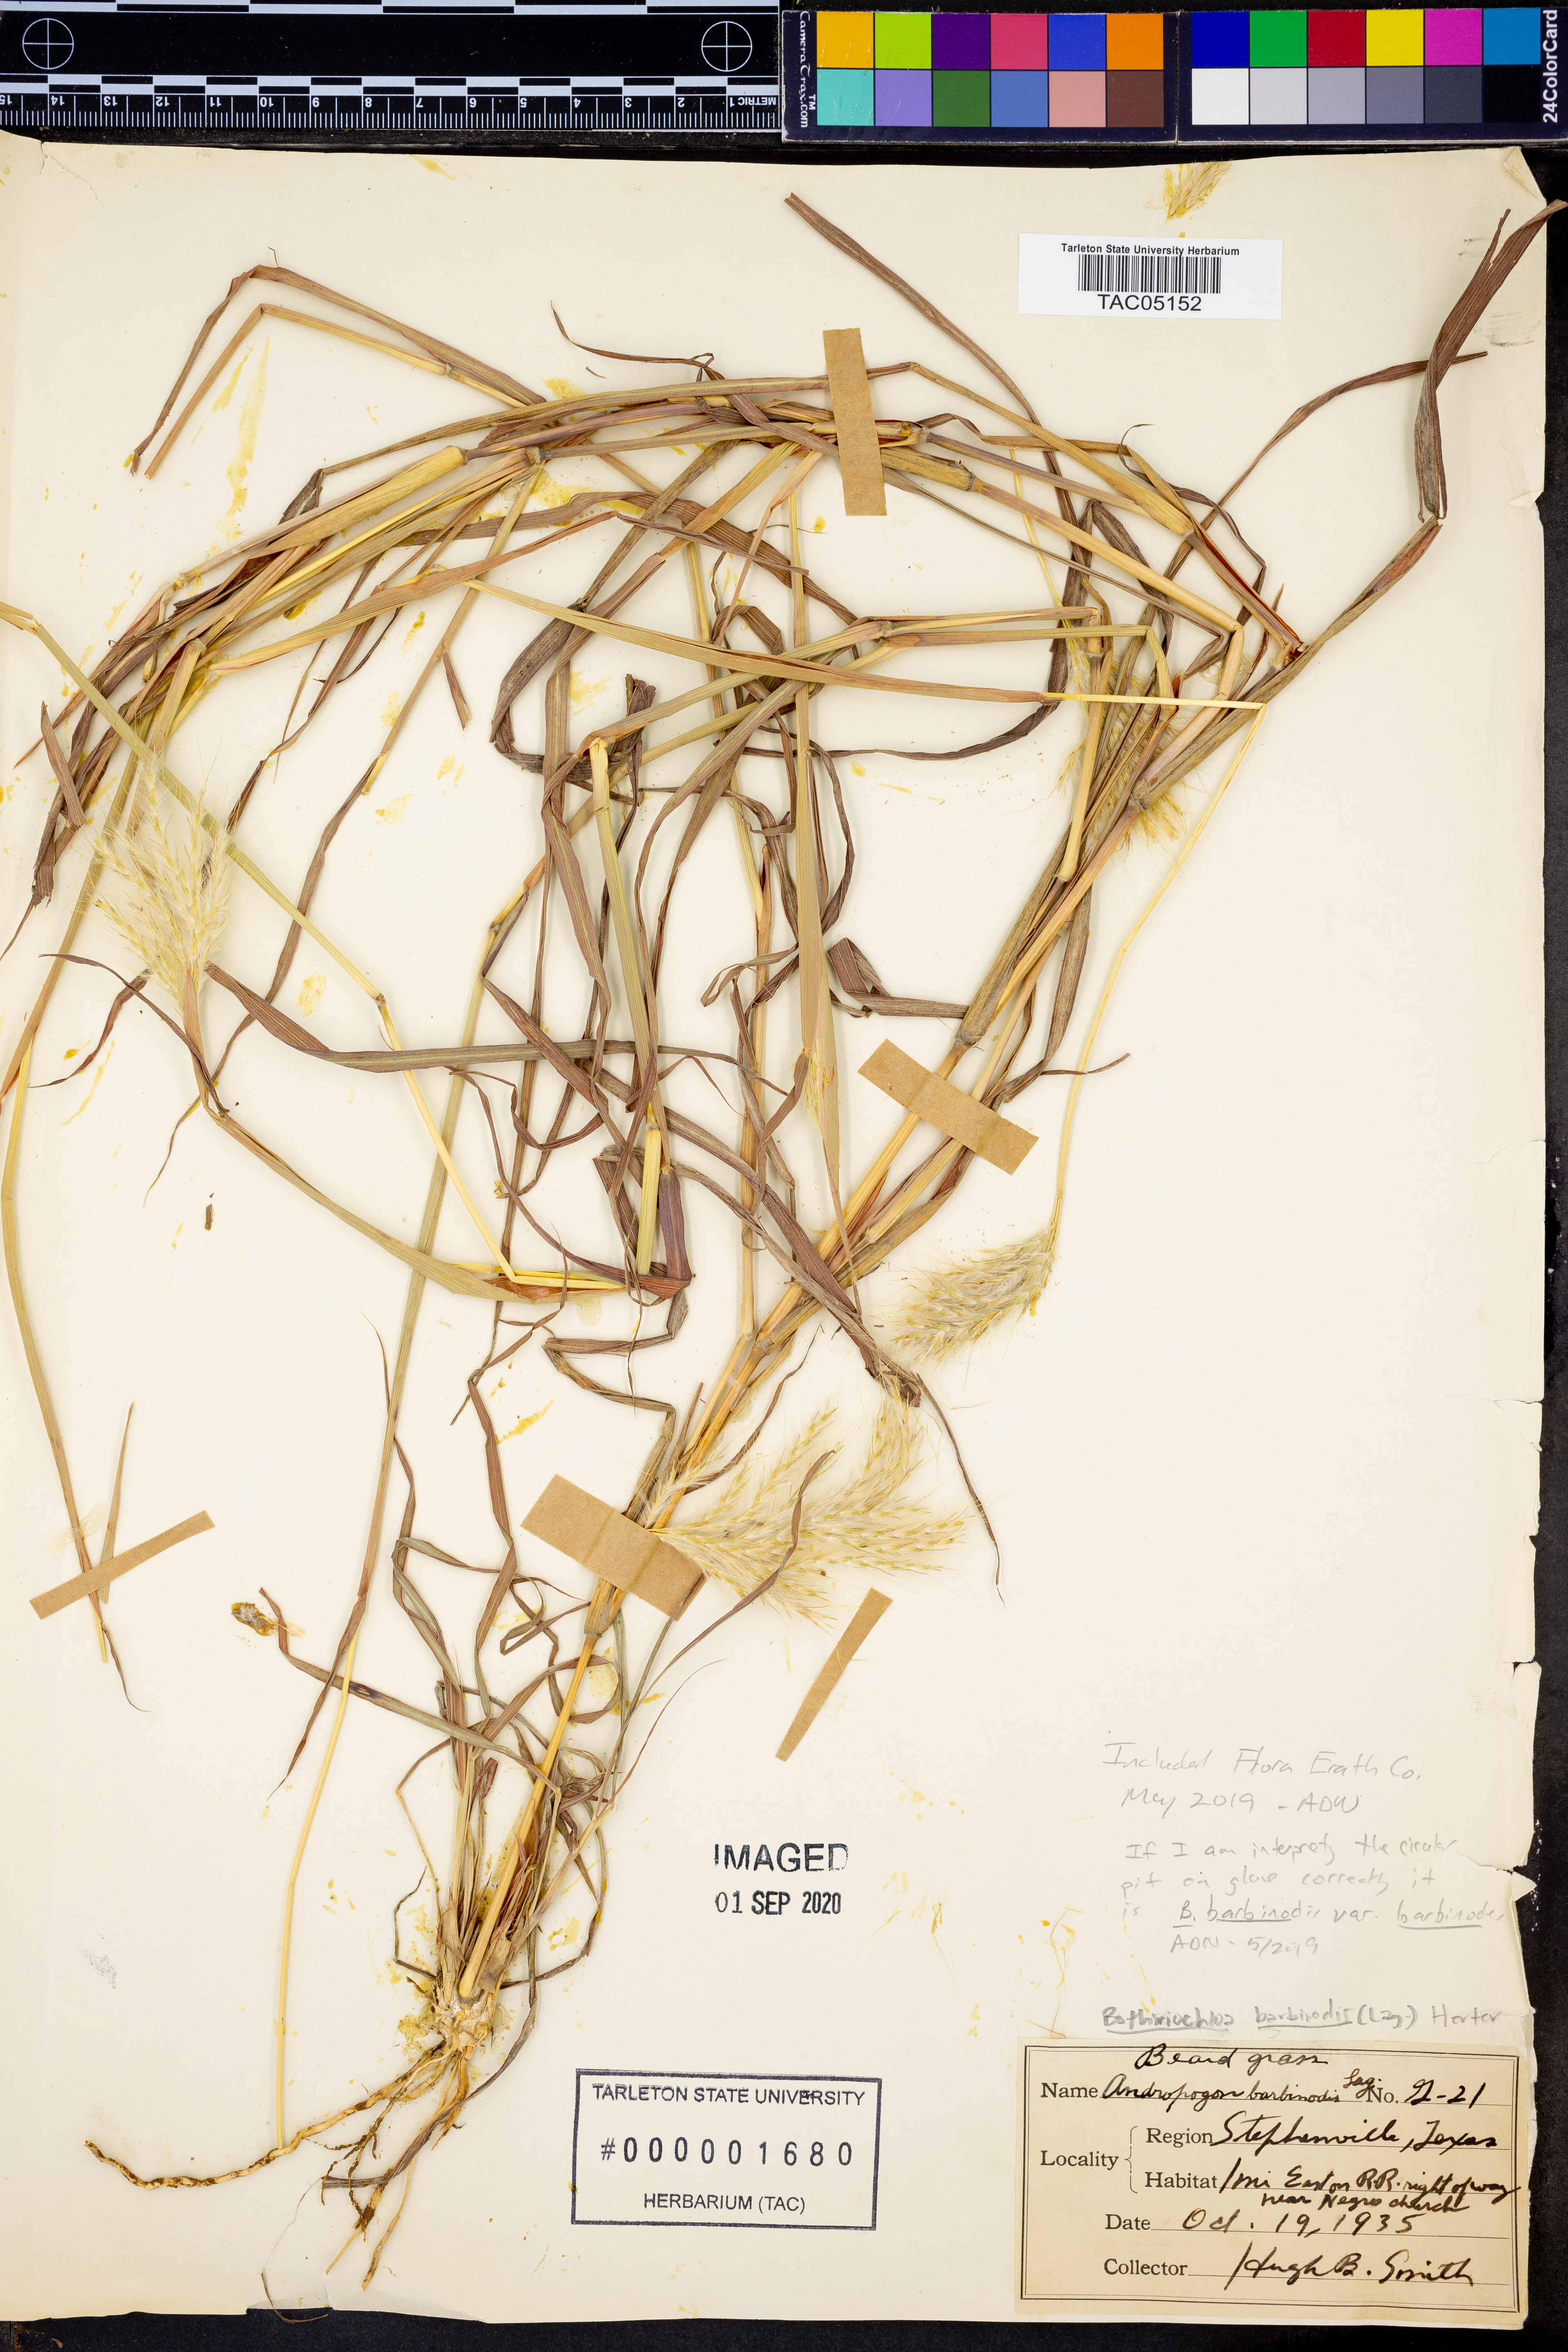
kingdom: Plantae
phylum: Tracheophyta
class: Liliopsida
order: Poales
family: Poaceae
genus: Bothriochloa
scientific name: Bothriochloa barbinodis
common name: Cane bluestem
